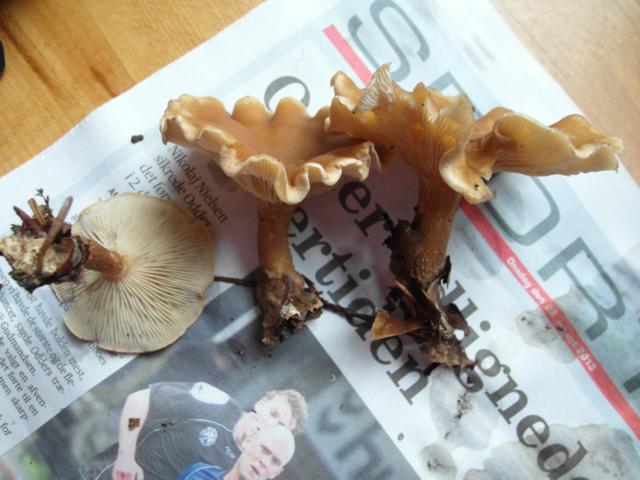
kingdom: Fungi
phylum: Basidiomycota
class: Agaricomycetes
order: Agaricales
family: Tricholomataceae
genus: Clitocybe
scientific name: Clitocybe costata
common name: brunstokket tragthat
